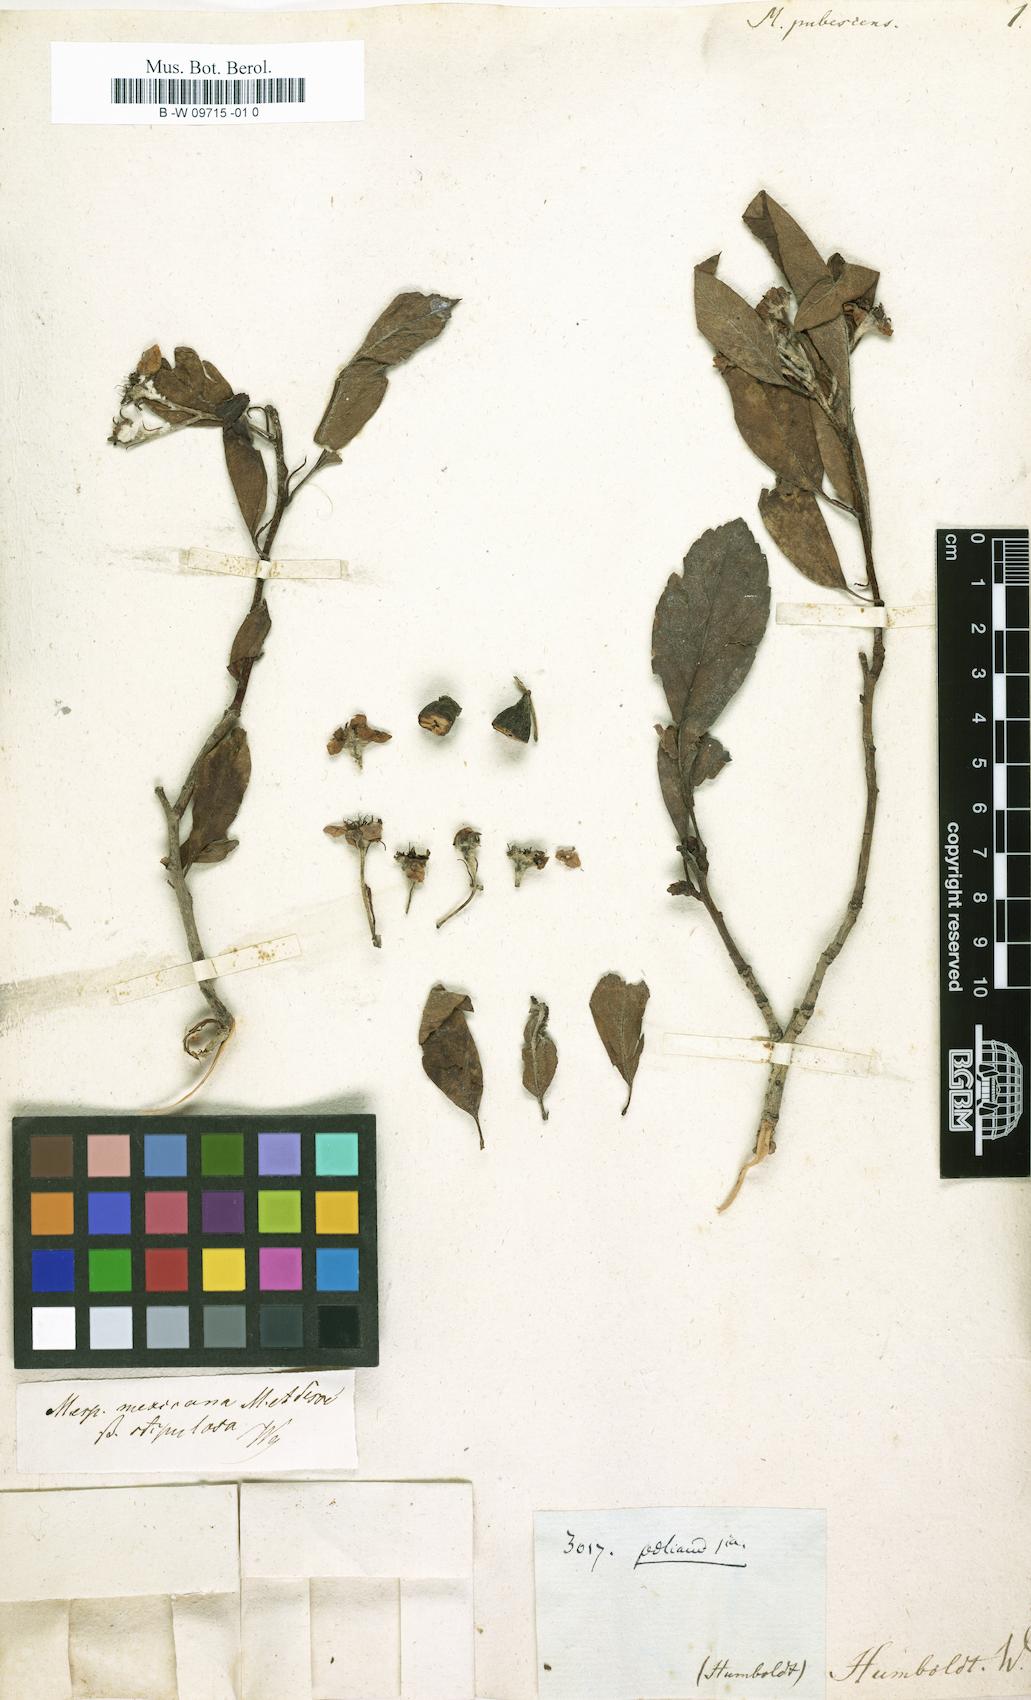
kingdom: Plantae
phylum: Tracheophyta
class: Magnoliopsida
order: Rosales
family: Rosaceae
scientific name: Rosaceae
